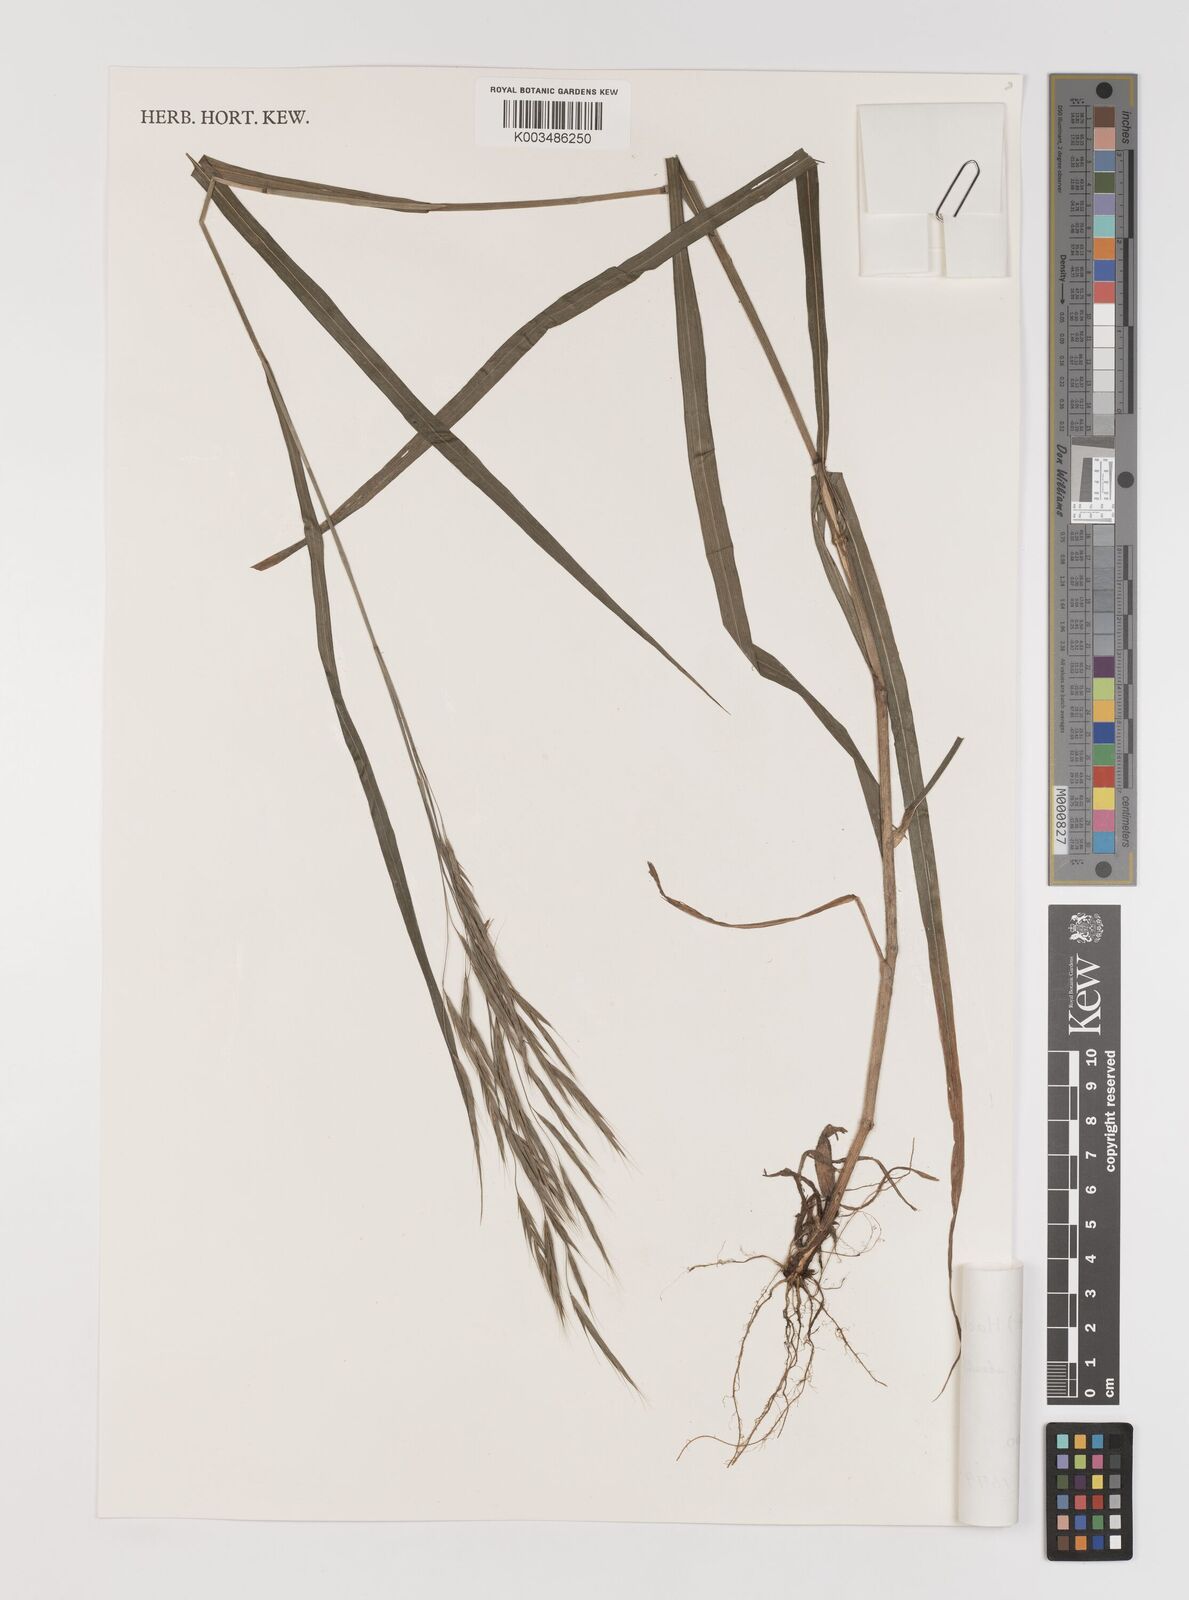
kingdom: Plantae
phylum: Tracheophyta
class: Liliopsida
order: Poales
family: Poaceae
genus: Bromus
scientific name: Bromus remotiflorus
